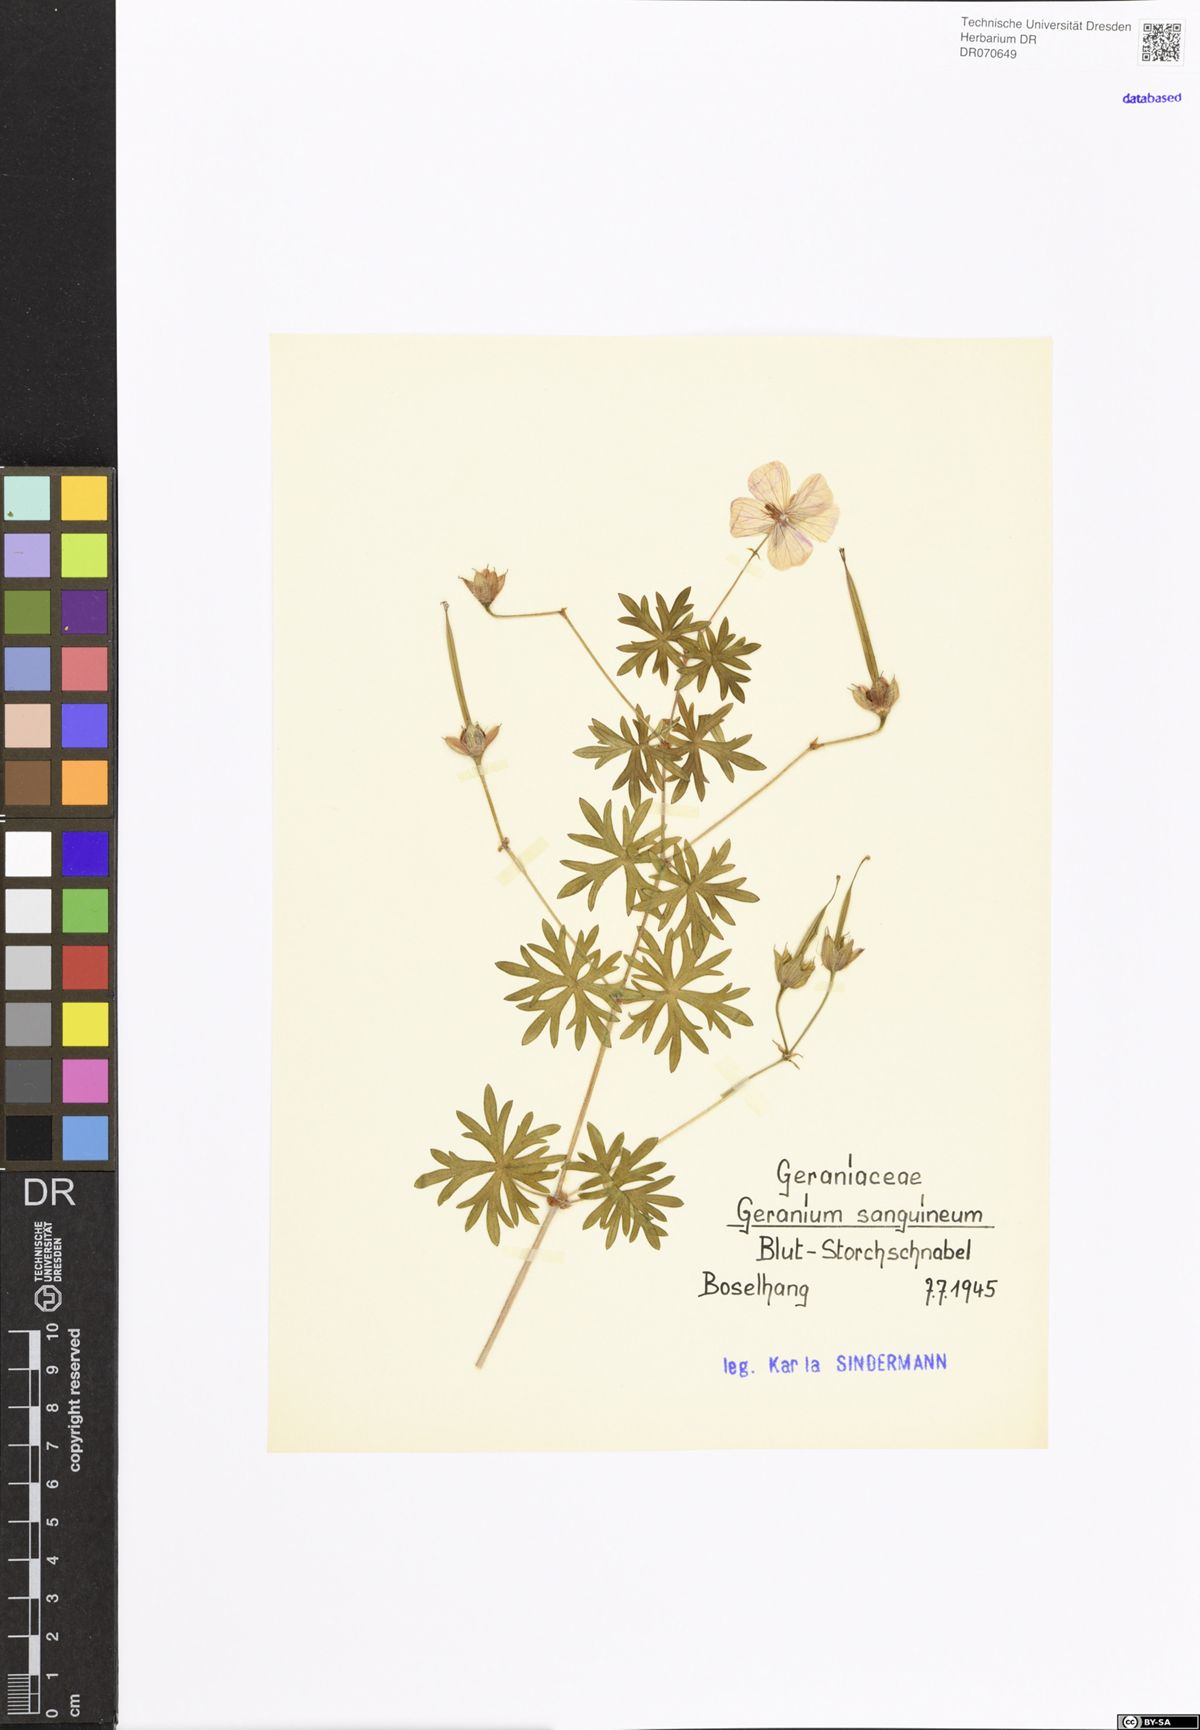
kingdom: Plantae
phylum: Tracheophyta
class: Magnoliopsida
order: Geraniales
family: Geraniaceae
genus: Geranium
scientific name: Geranium sanguineum
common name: Bloody crane's-bill
